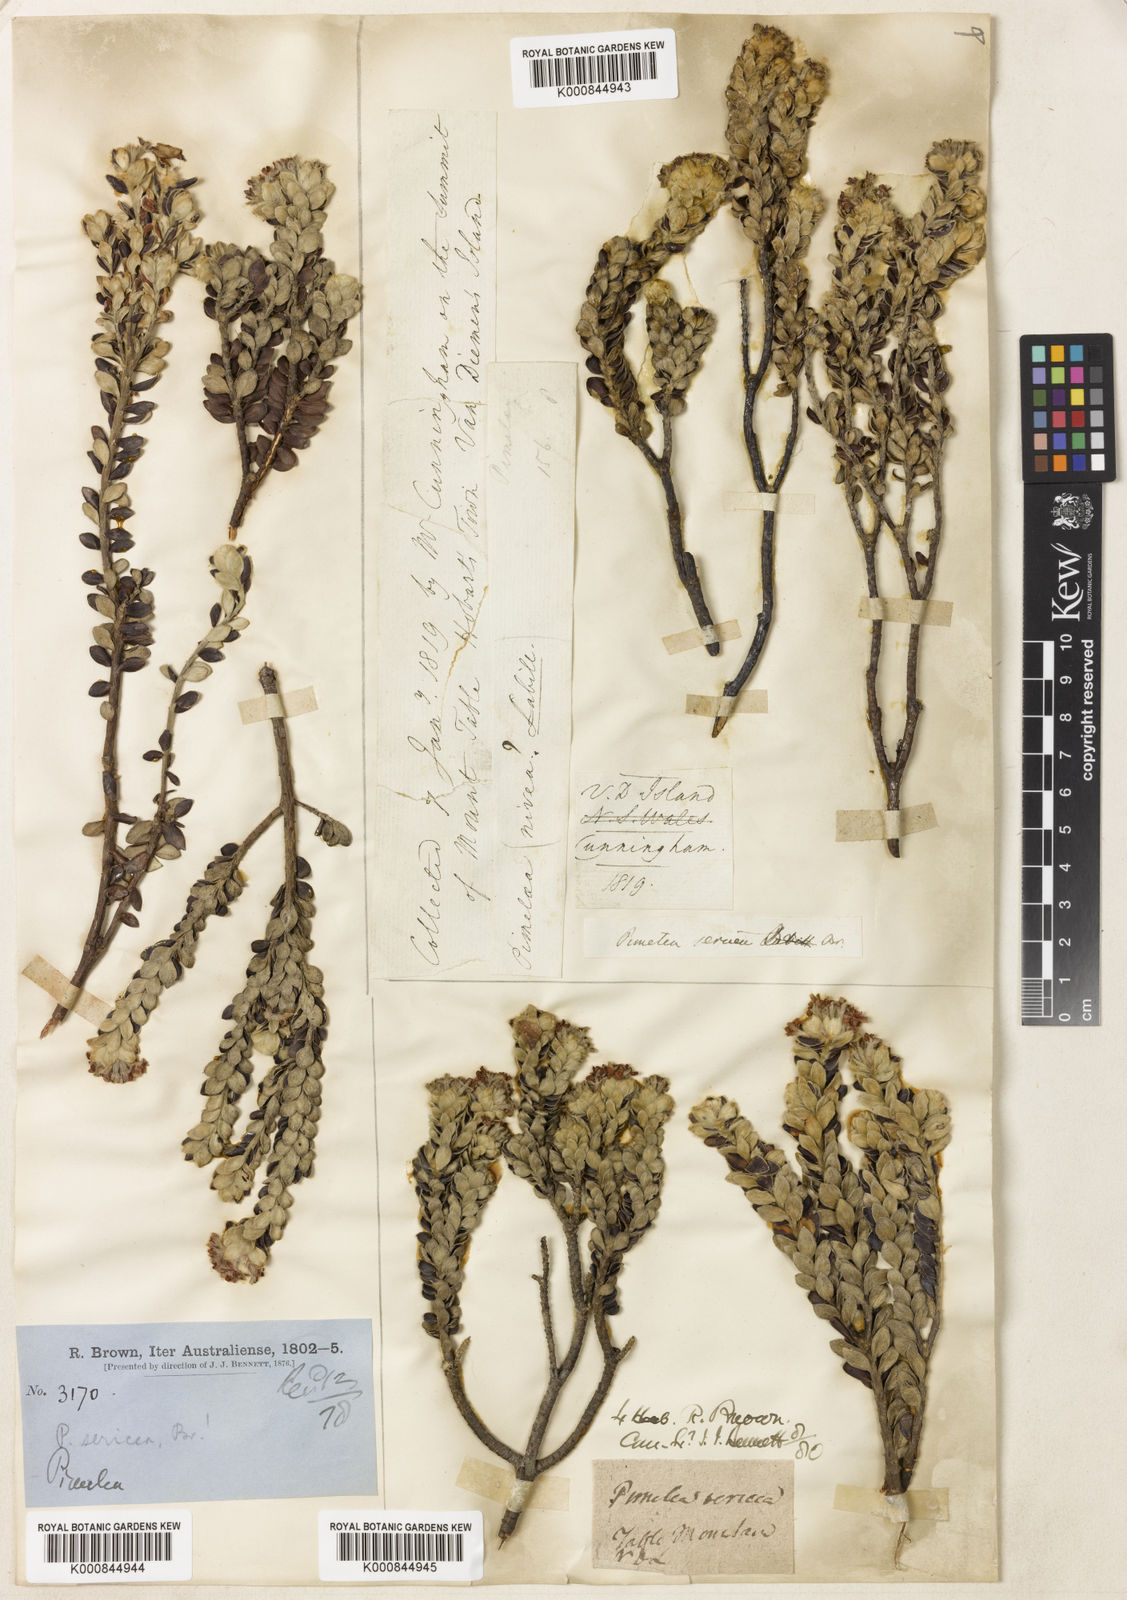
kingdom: Plantae
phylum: Tracheophyta
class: Magnoliopsida
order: Malvales
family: Thymelaeaceae
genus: Pimelea
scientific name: Pimelea sericea
